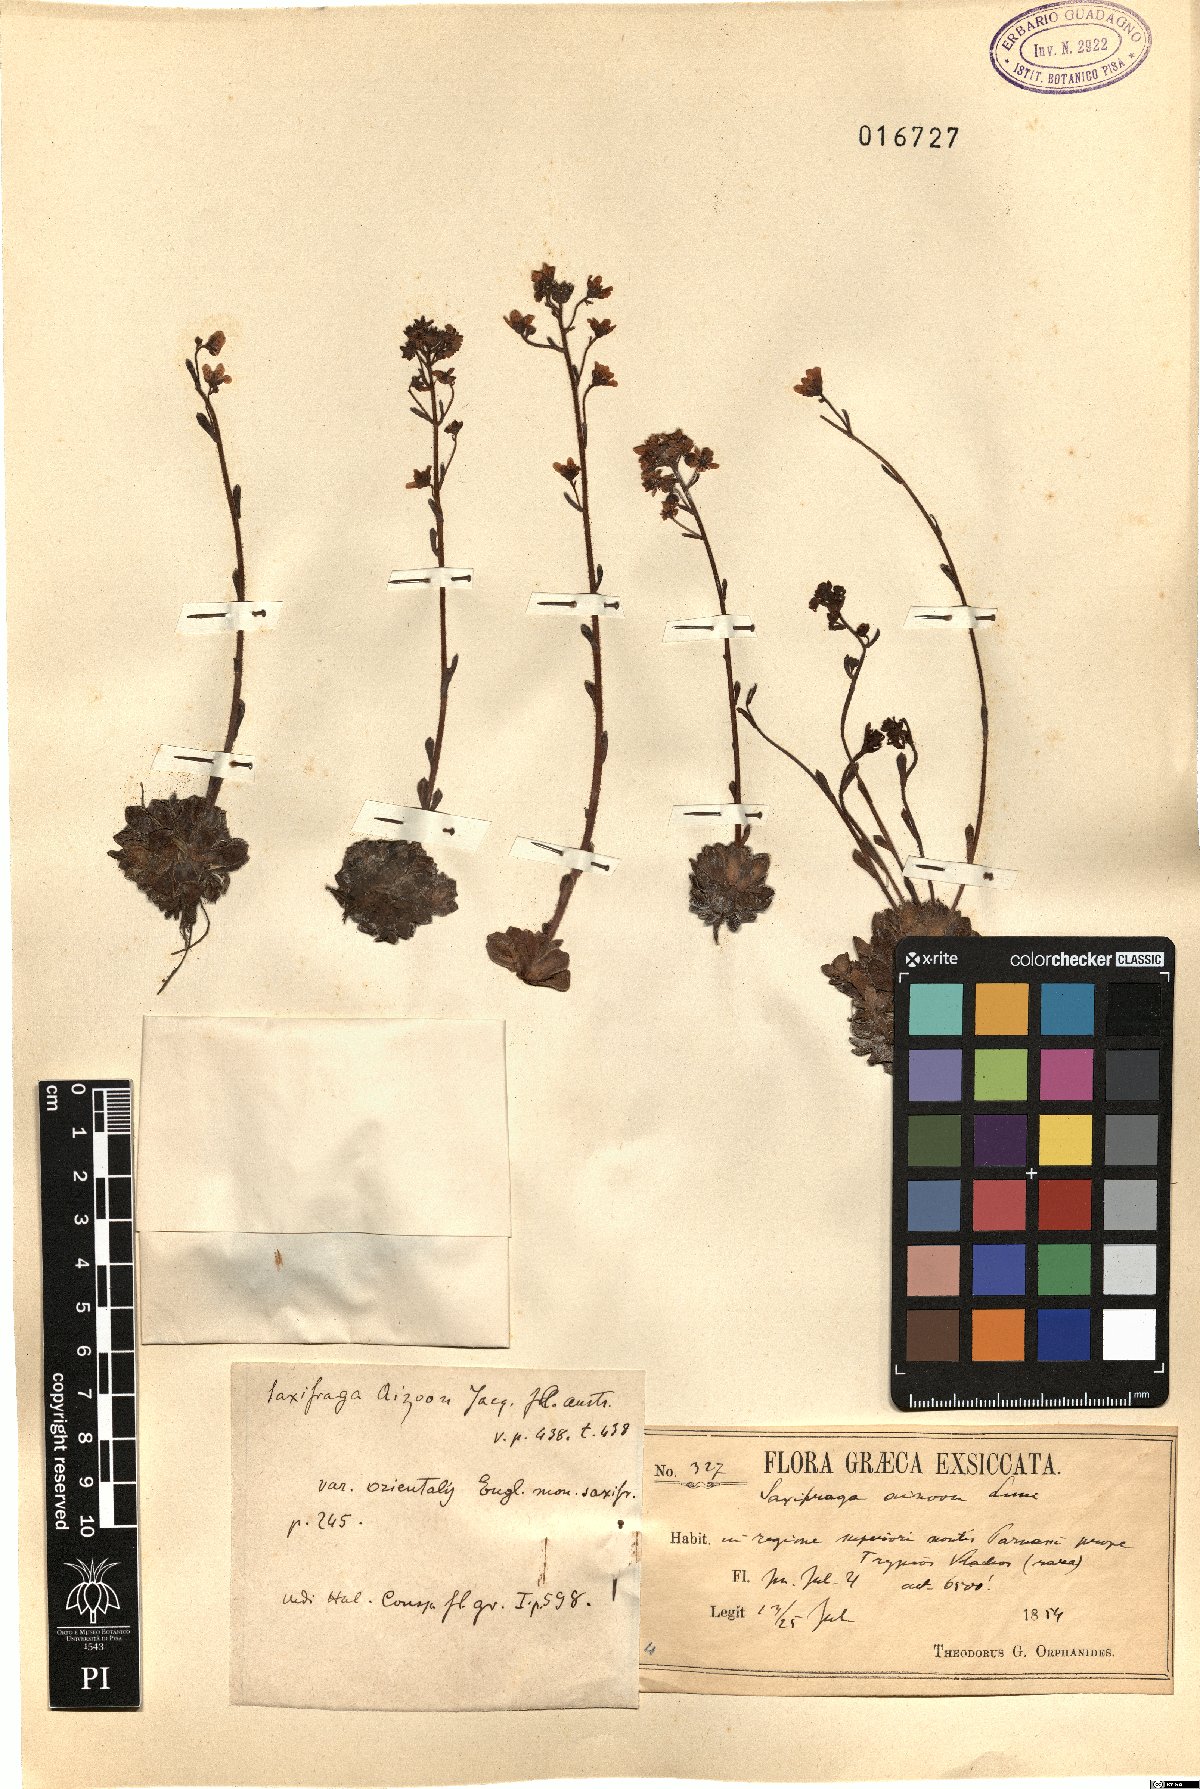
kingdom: Plantae
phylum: Tracheophyta
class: Magnoliopsida
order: Saxifragales
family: Saxifragaceae
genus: Saxifraga
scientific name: Saxifraga paniculata
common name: Livelong saxifrage
